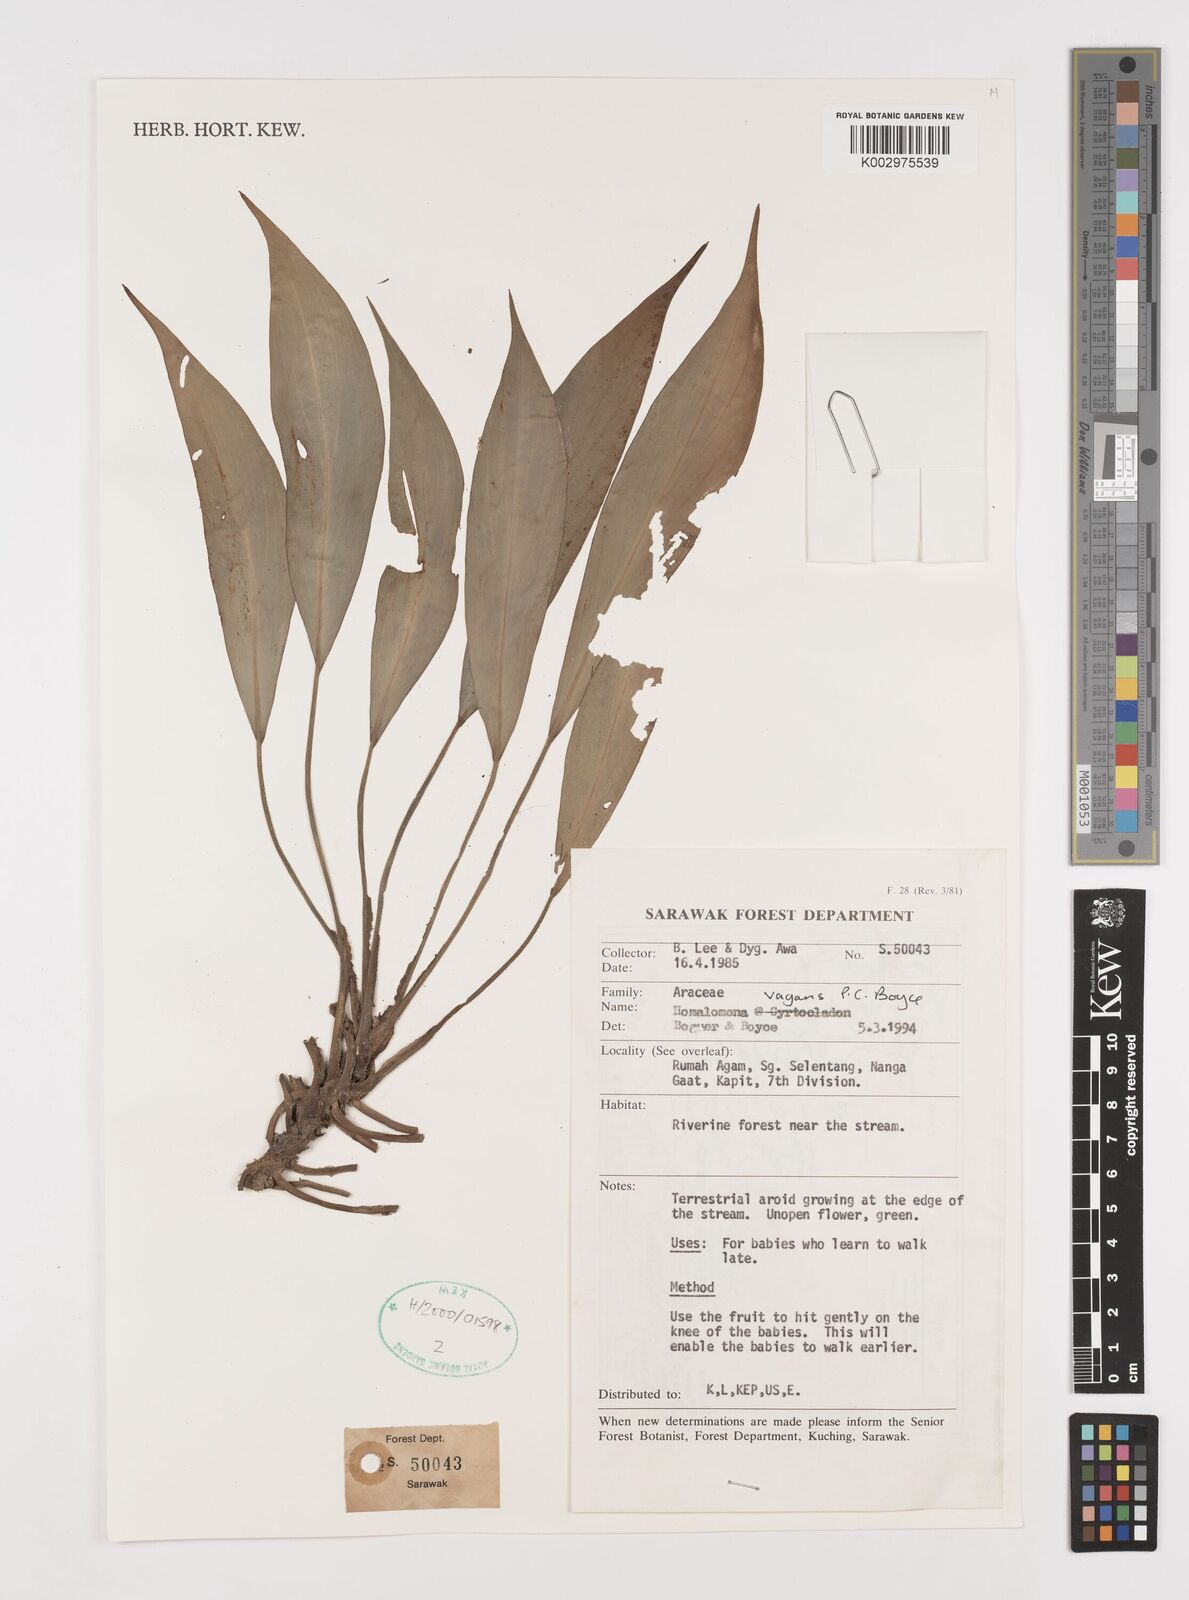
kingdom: Plantae
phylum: Tracheophyta
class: Liliopsida
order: Alismatales
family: Araceae
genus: Homalomena
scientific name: Homalomena vagans
